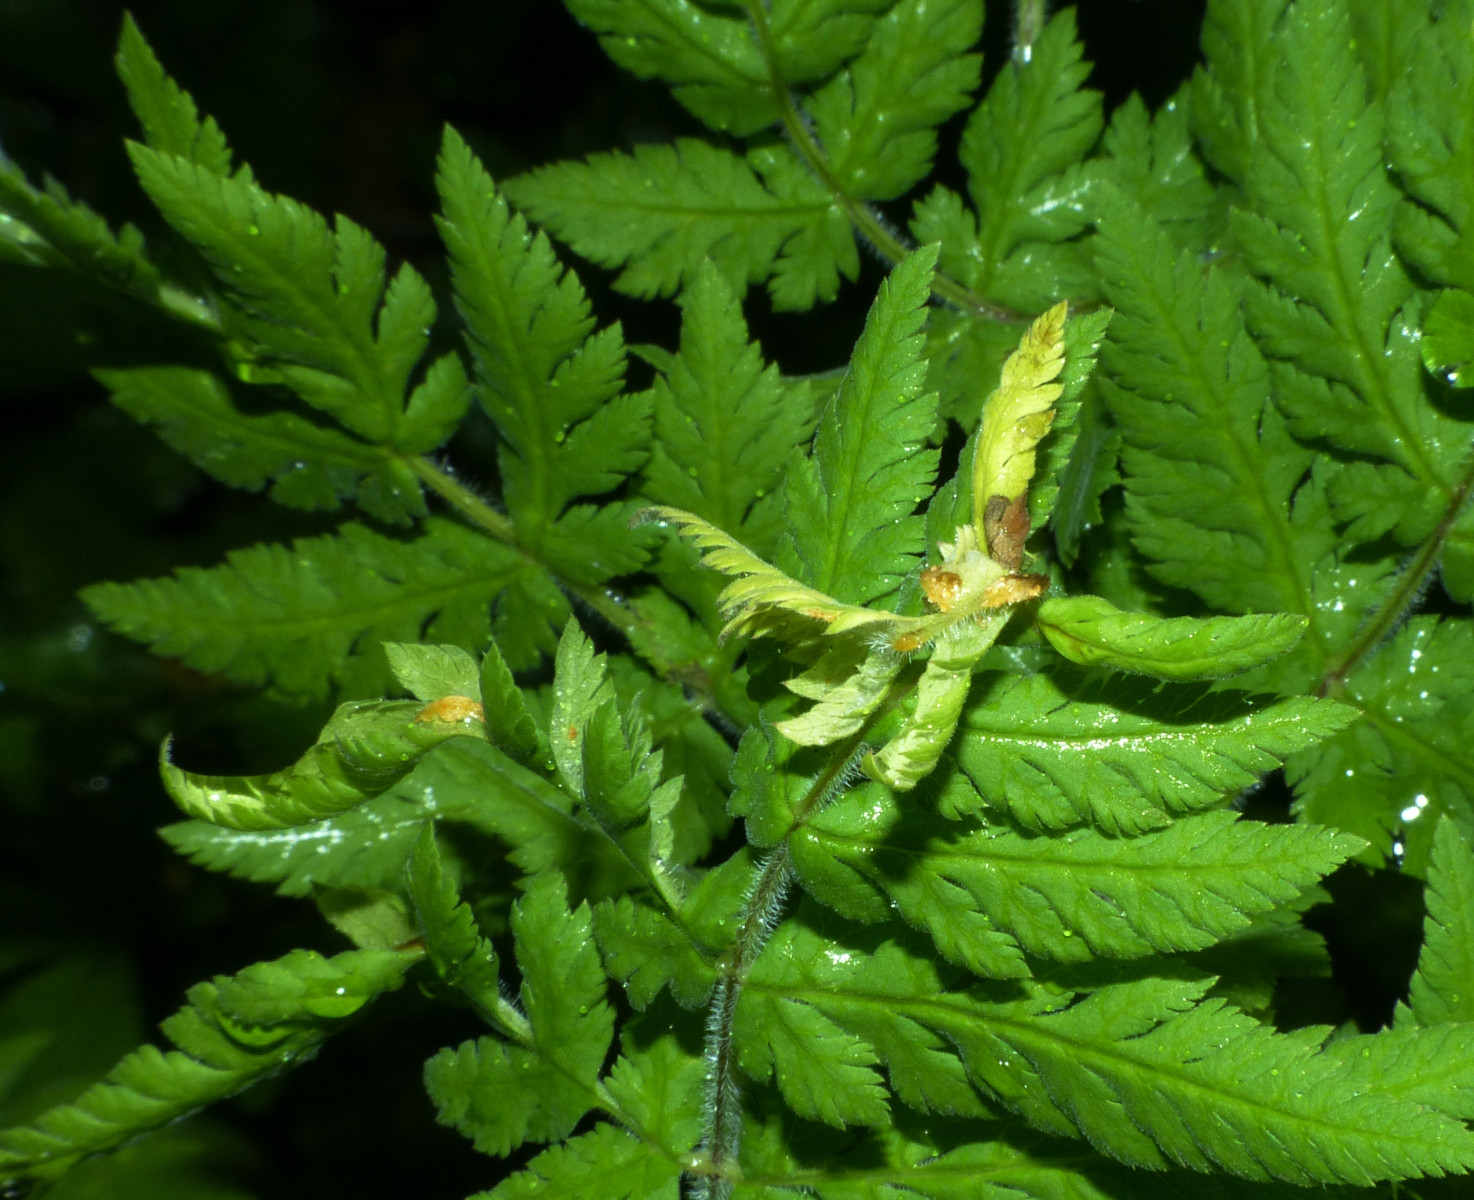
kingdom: Fungi
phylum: Basidiomycota
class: Pucciniomycetes
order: Pucciniales
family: Pucciniaceae
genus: Puccinia
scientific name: Puccinia chaerophylli
